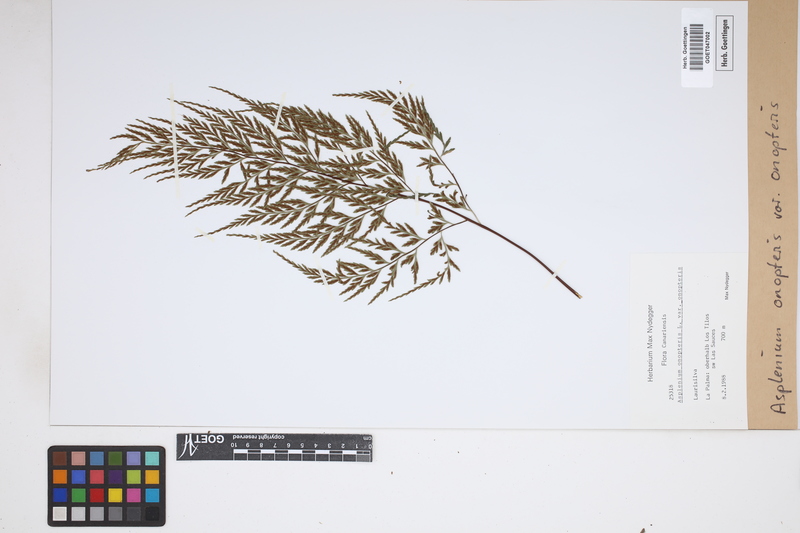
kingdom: Plantae
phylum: Tracheophyta
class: Polypodiopsida
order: Polypodiales
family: Aspleniaceae
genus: Asplenium
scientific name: Asplenium onopteris
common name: Irish spleenwort
